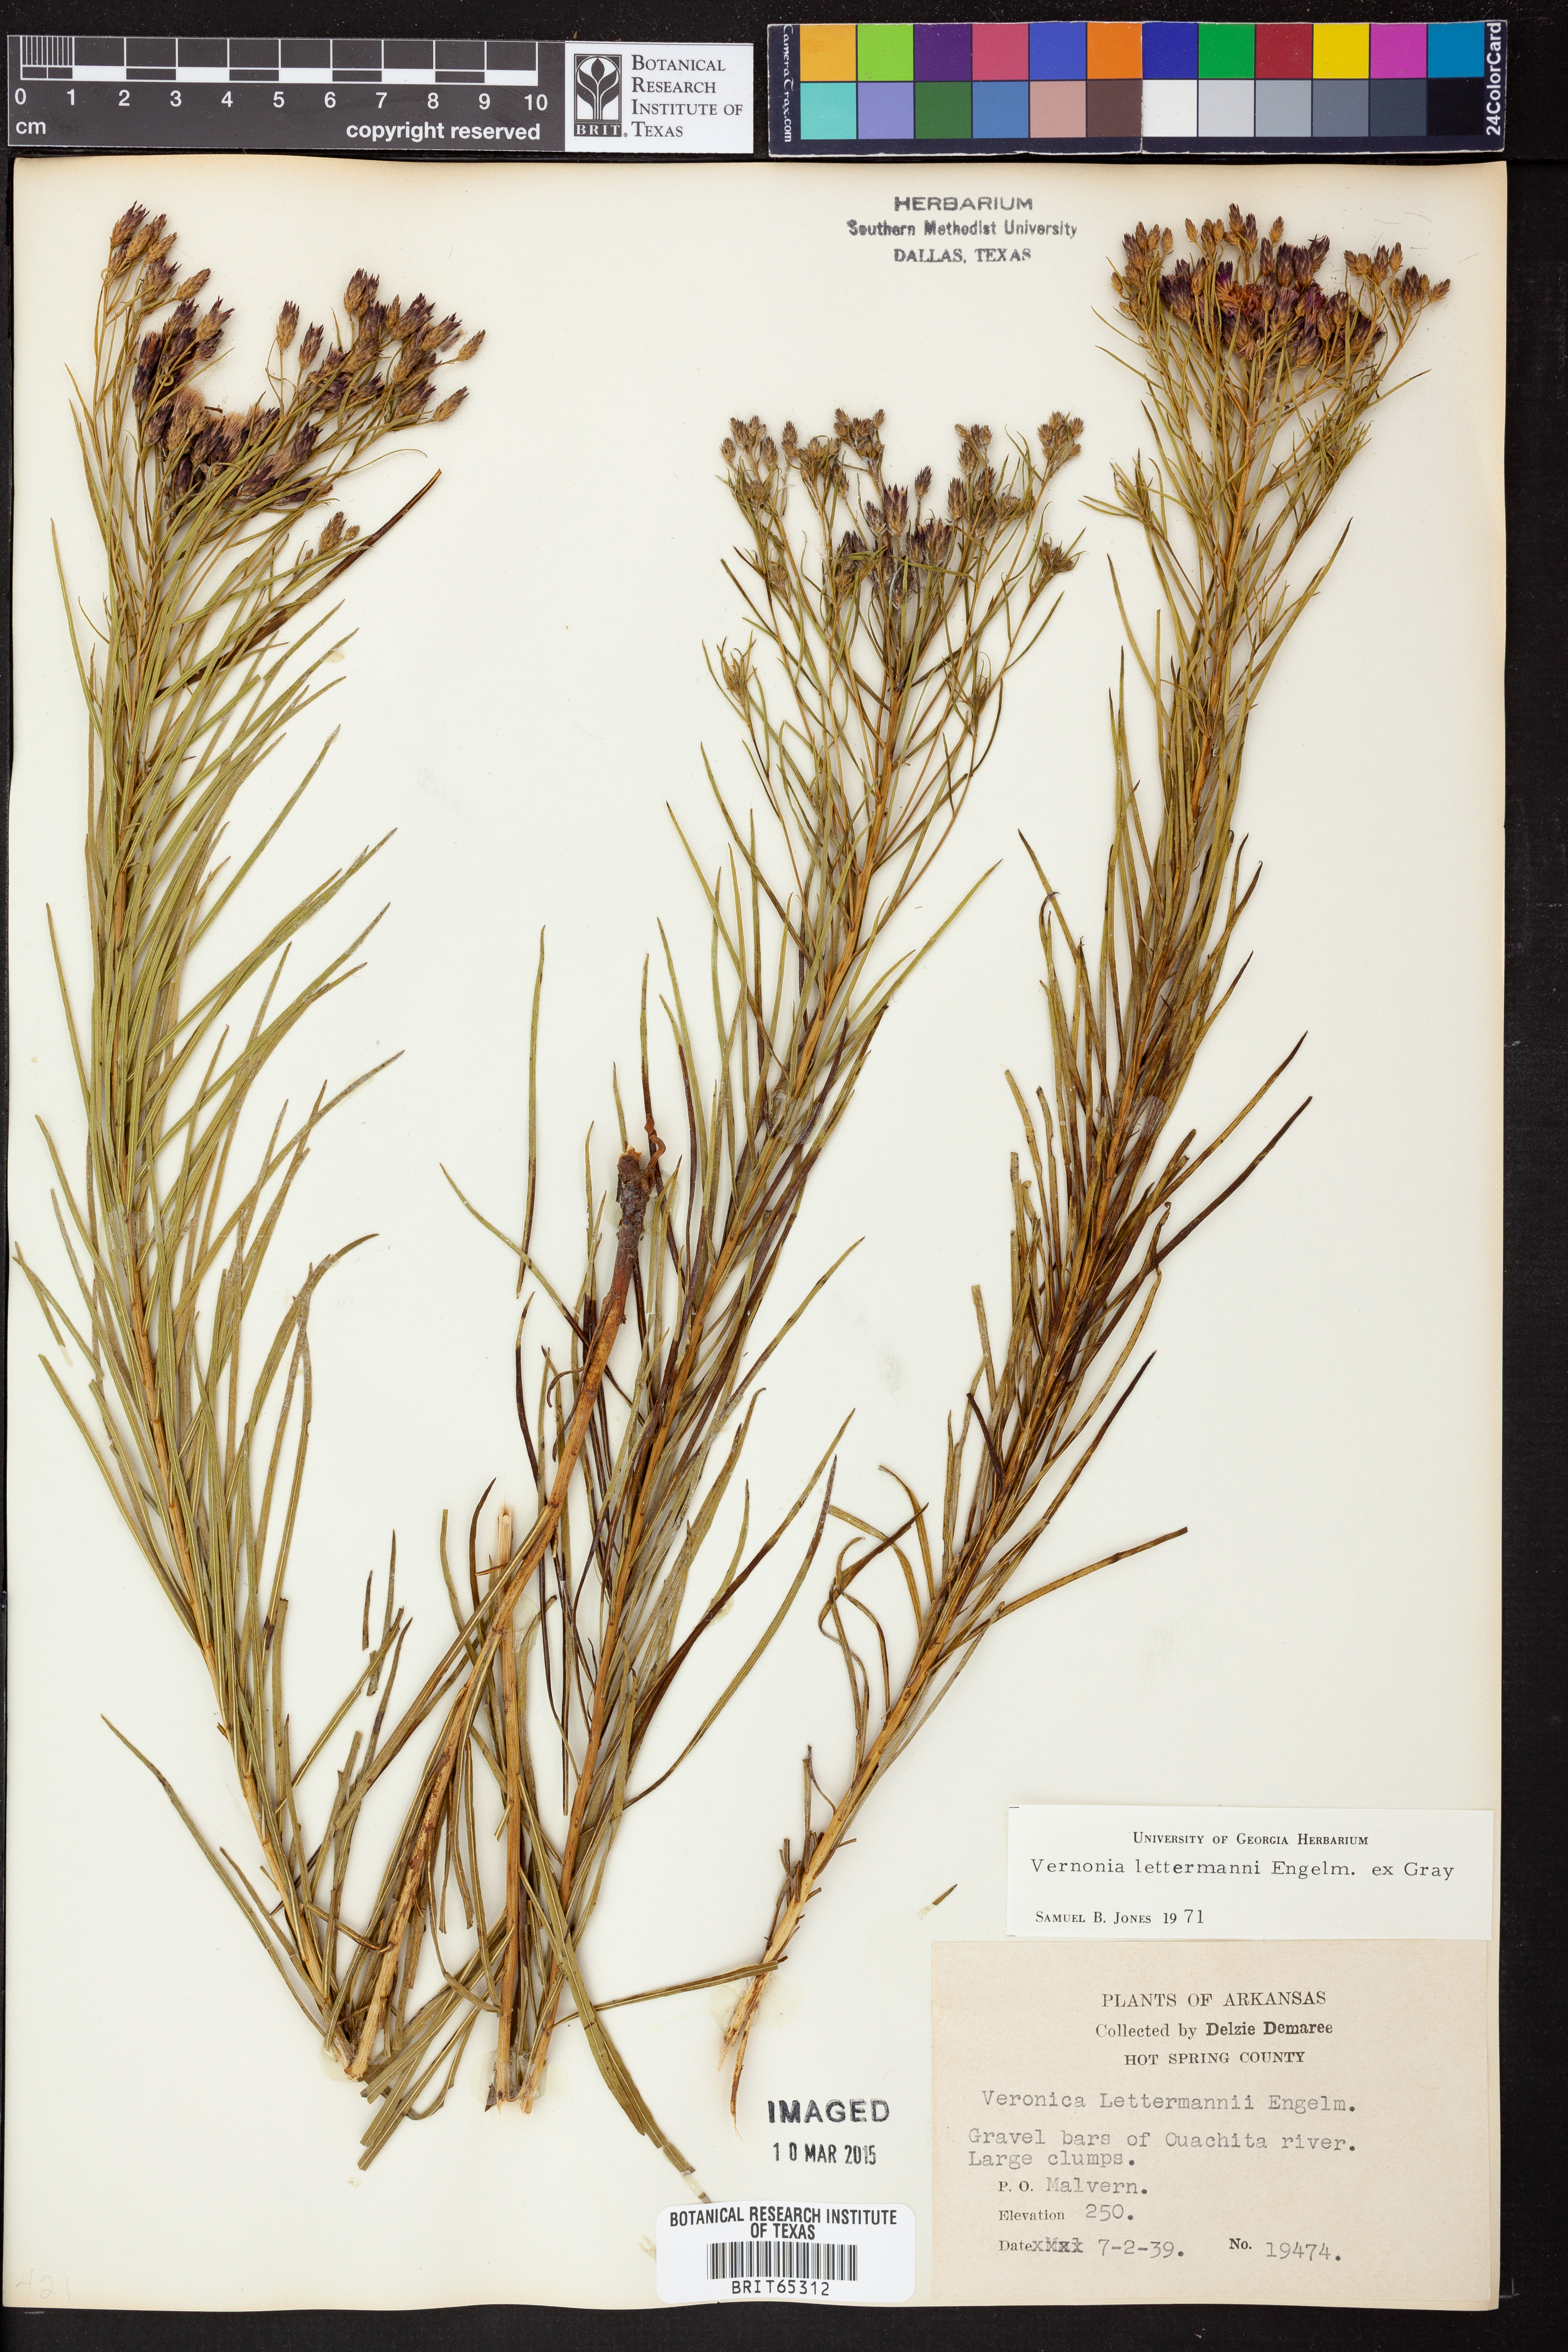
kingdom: Plantae
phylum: Tracheophyta
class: Magnoliopsida
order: Asterales
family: Asteraceae
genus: Vernonia
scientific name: Vernonia lettermannii
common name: Lettermann's ironweed
